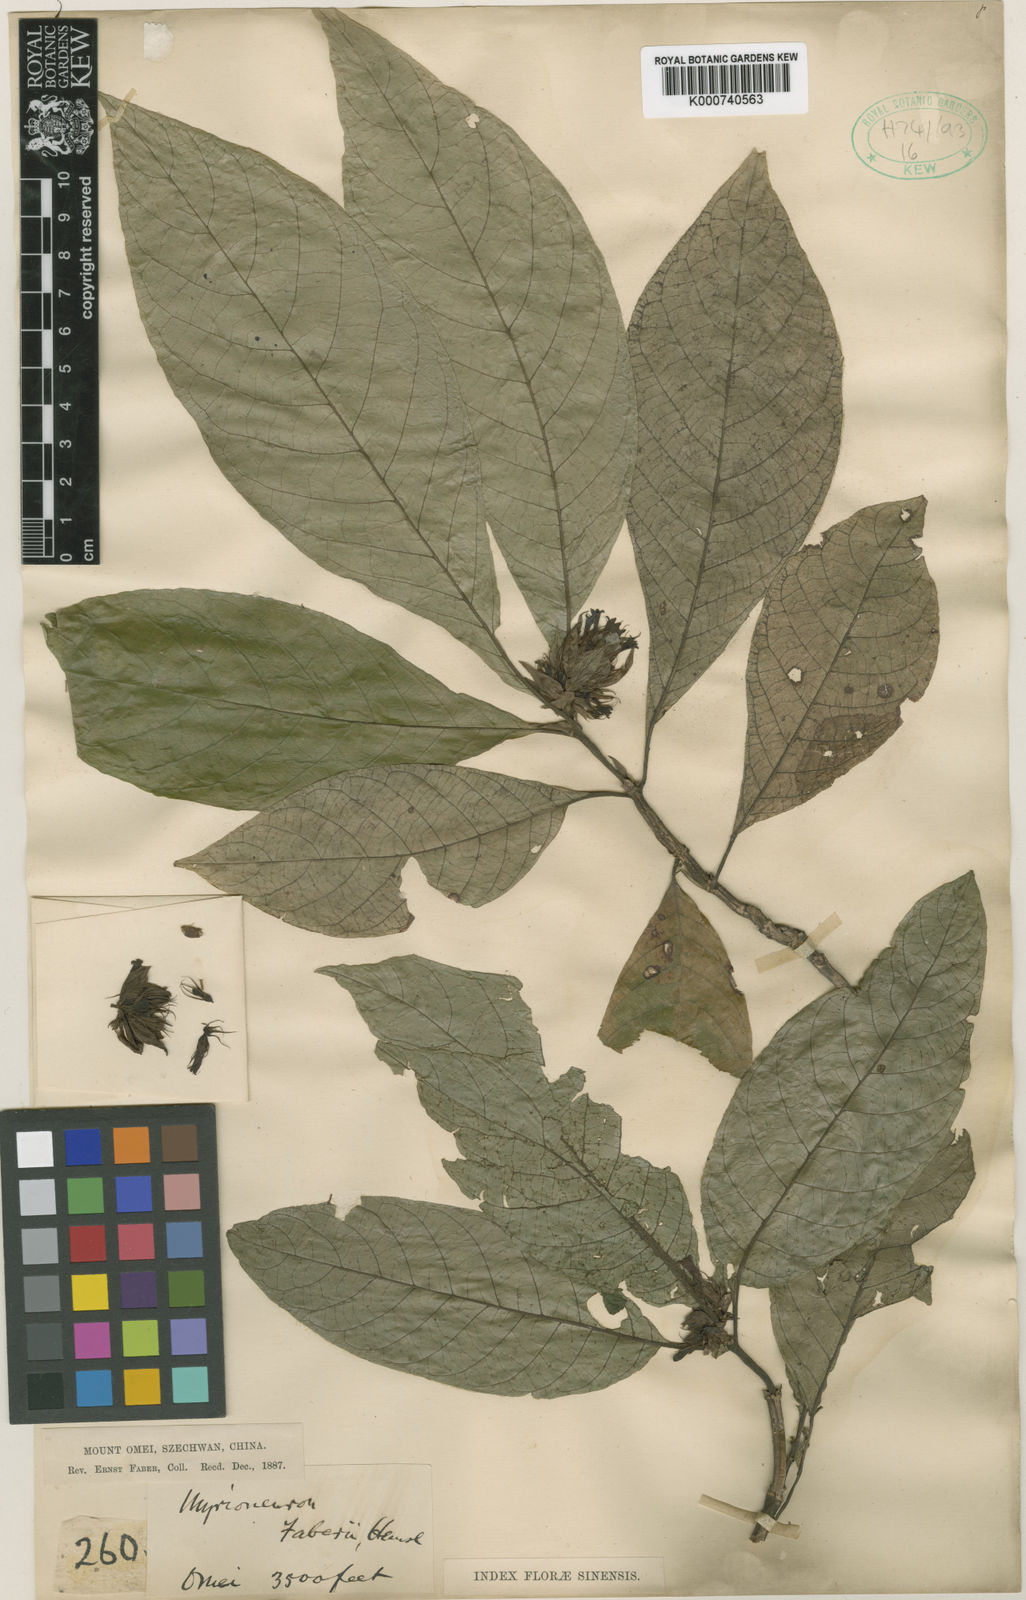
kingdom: Plantae
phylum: Tracheophyta
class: Magnoliopsida
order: Gentianales
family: Rubiaceae
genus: Mycetia
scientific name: Mycetia faberi
